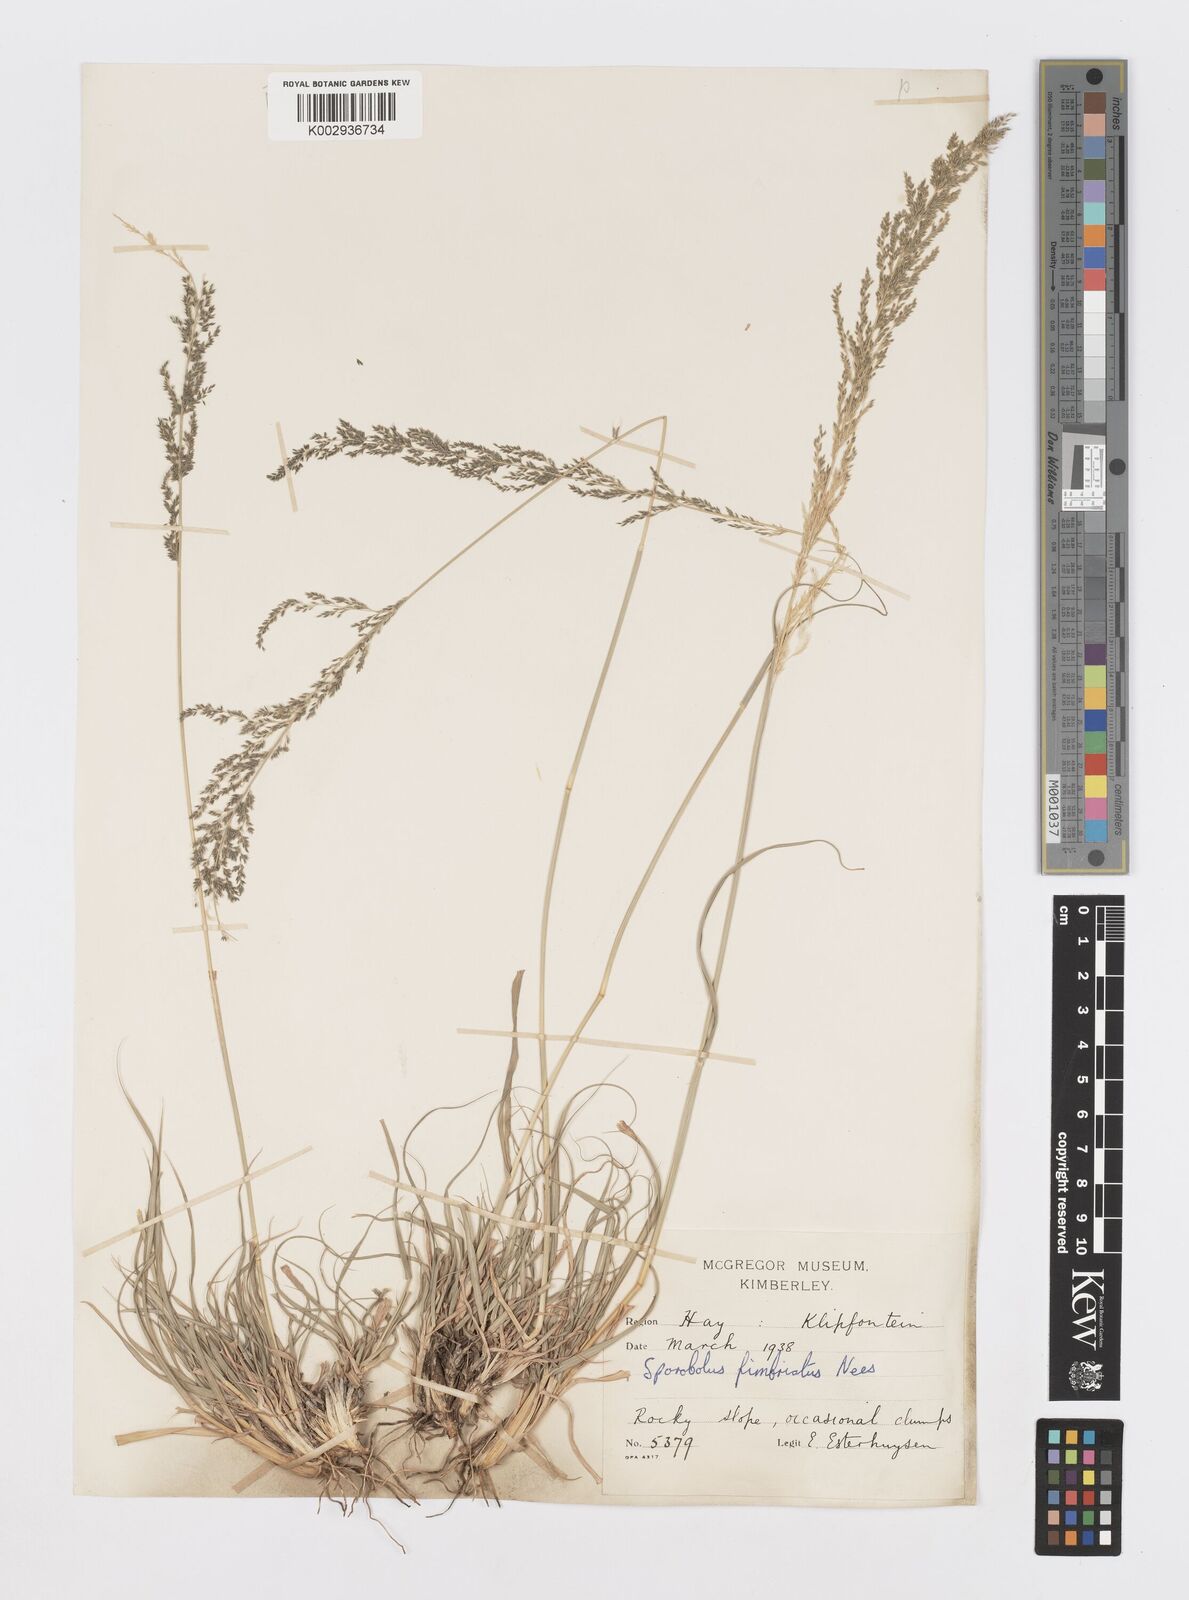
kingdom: Plantae
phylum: Tracheophyta
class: Liliopsida
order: Poales
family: Poaceae
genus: Sporobolus
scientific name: Sporobolus fimbriatus
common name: Fringed dropseed
